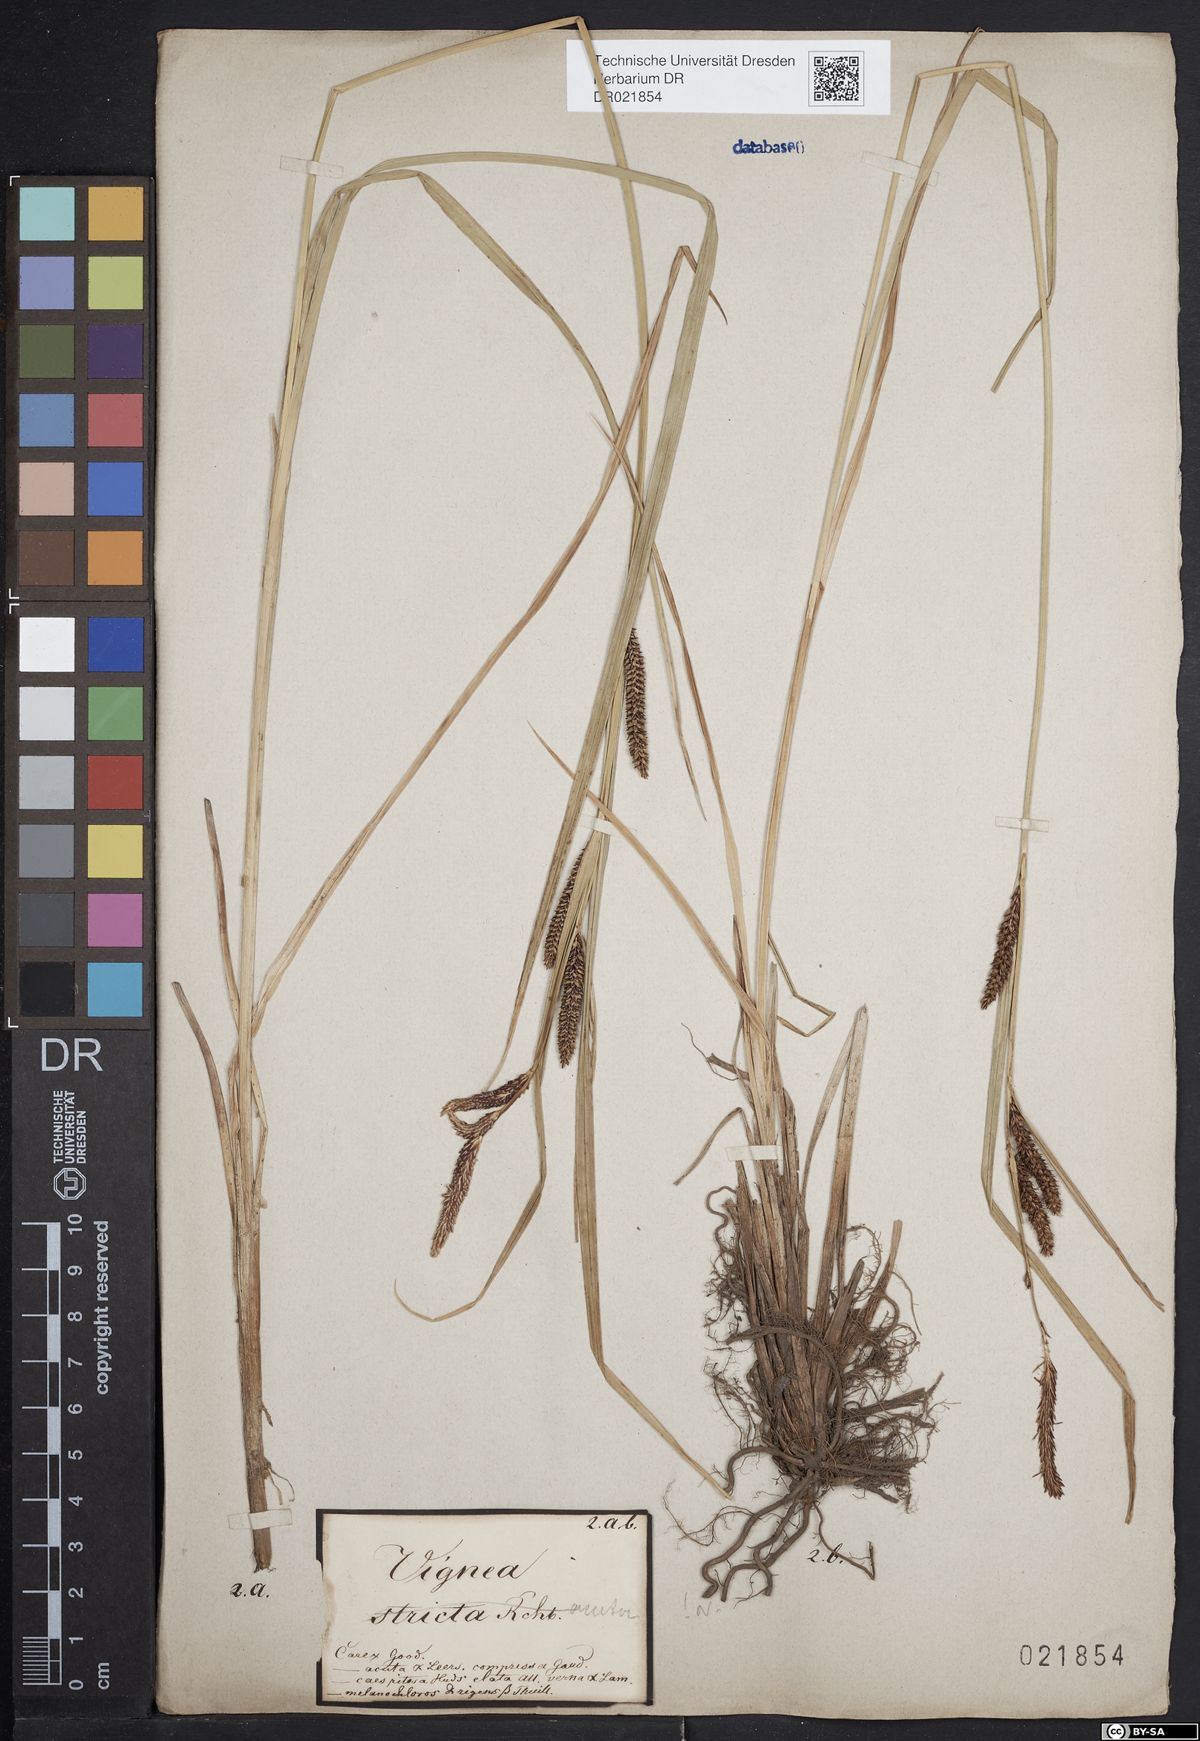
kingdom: Plantae
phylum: Tracheophyta
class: Liliopsida
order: Poales
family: Cyperaceae
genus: Carex
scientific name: Carex acuta
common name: Slender tufted-sedge
